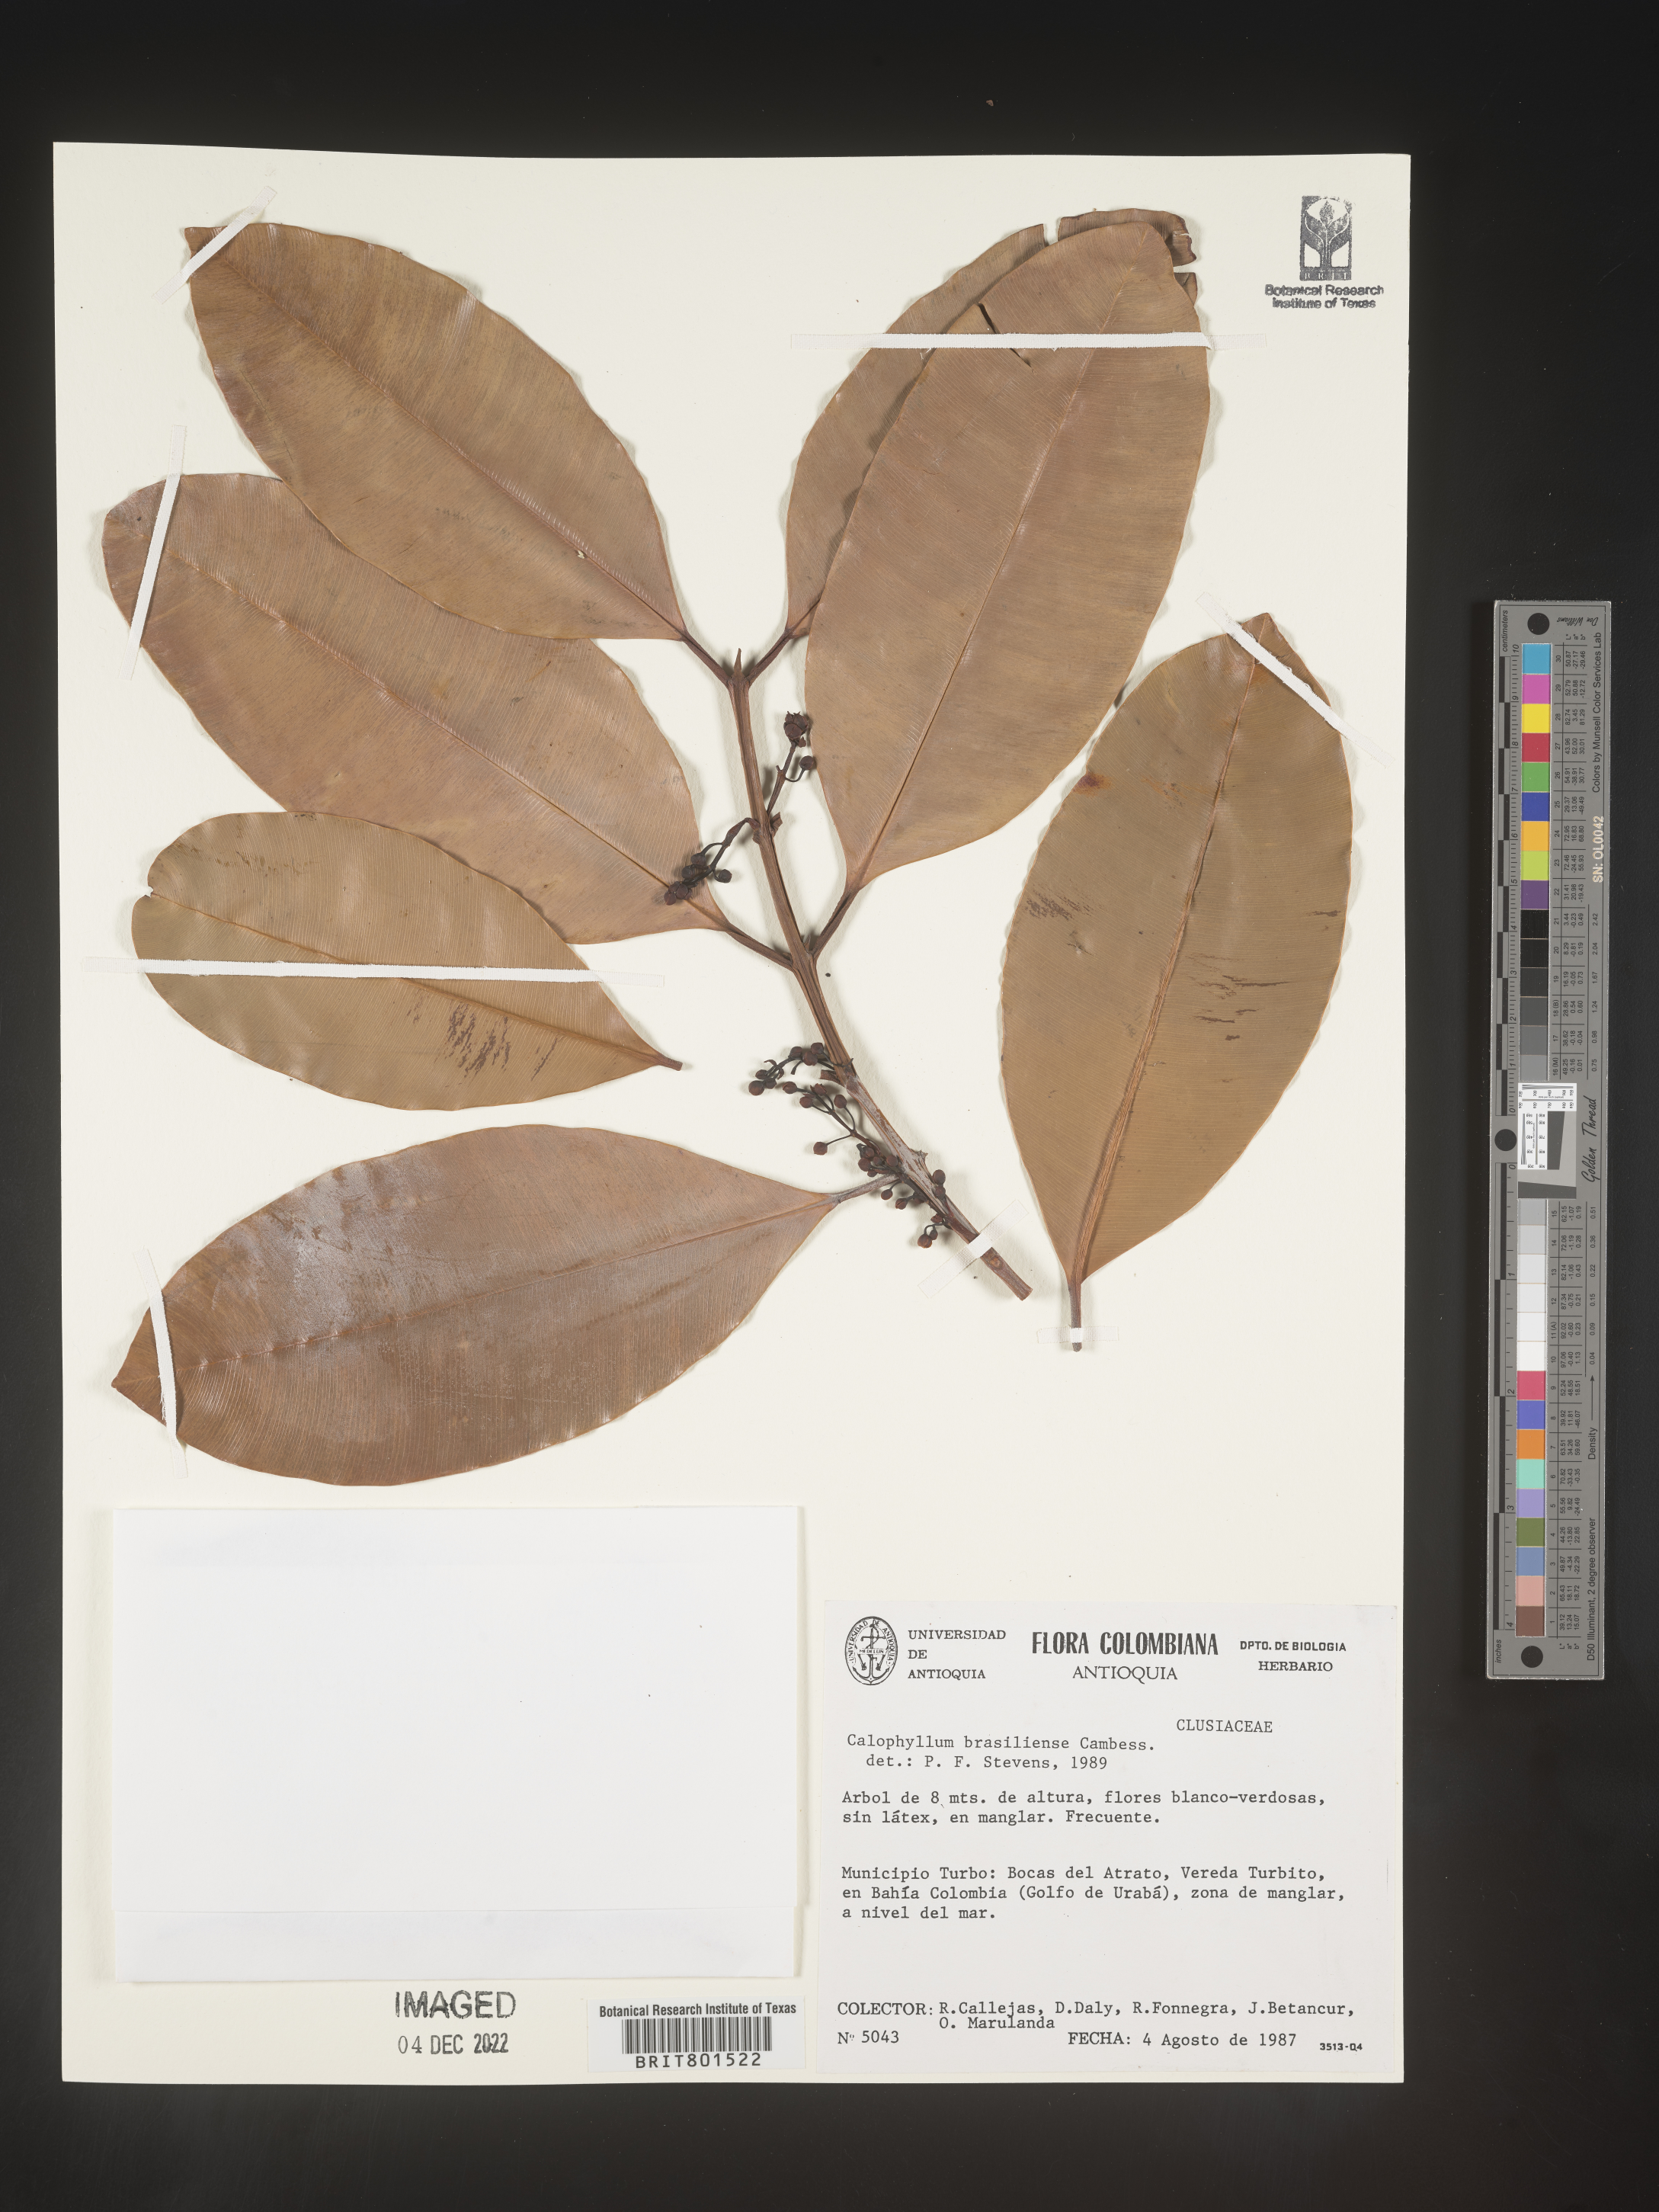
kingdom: Plantae
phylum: Tracheophyta
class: Magnoliopsida
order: Malpighiales
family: Calophyllaceae
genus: Calophyllum
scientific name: Calophyllum brasiliense
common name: Santa maria
